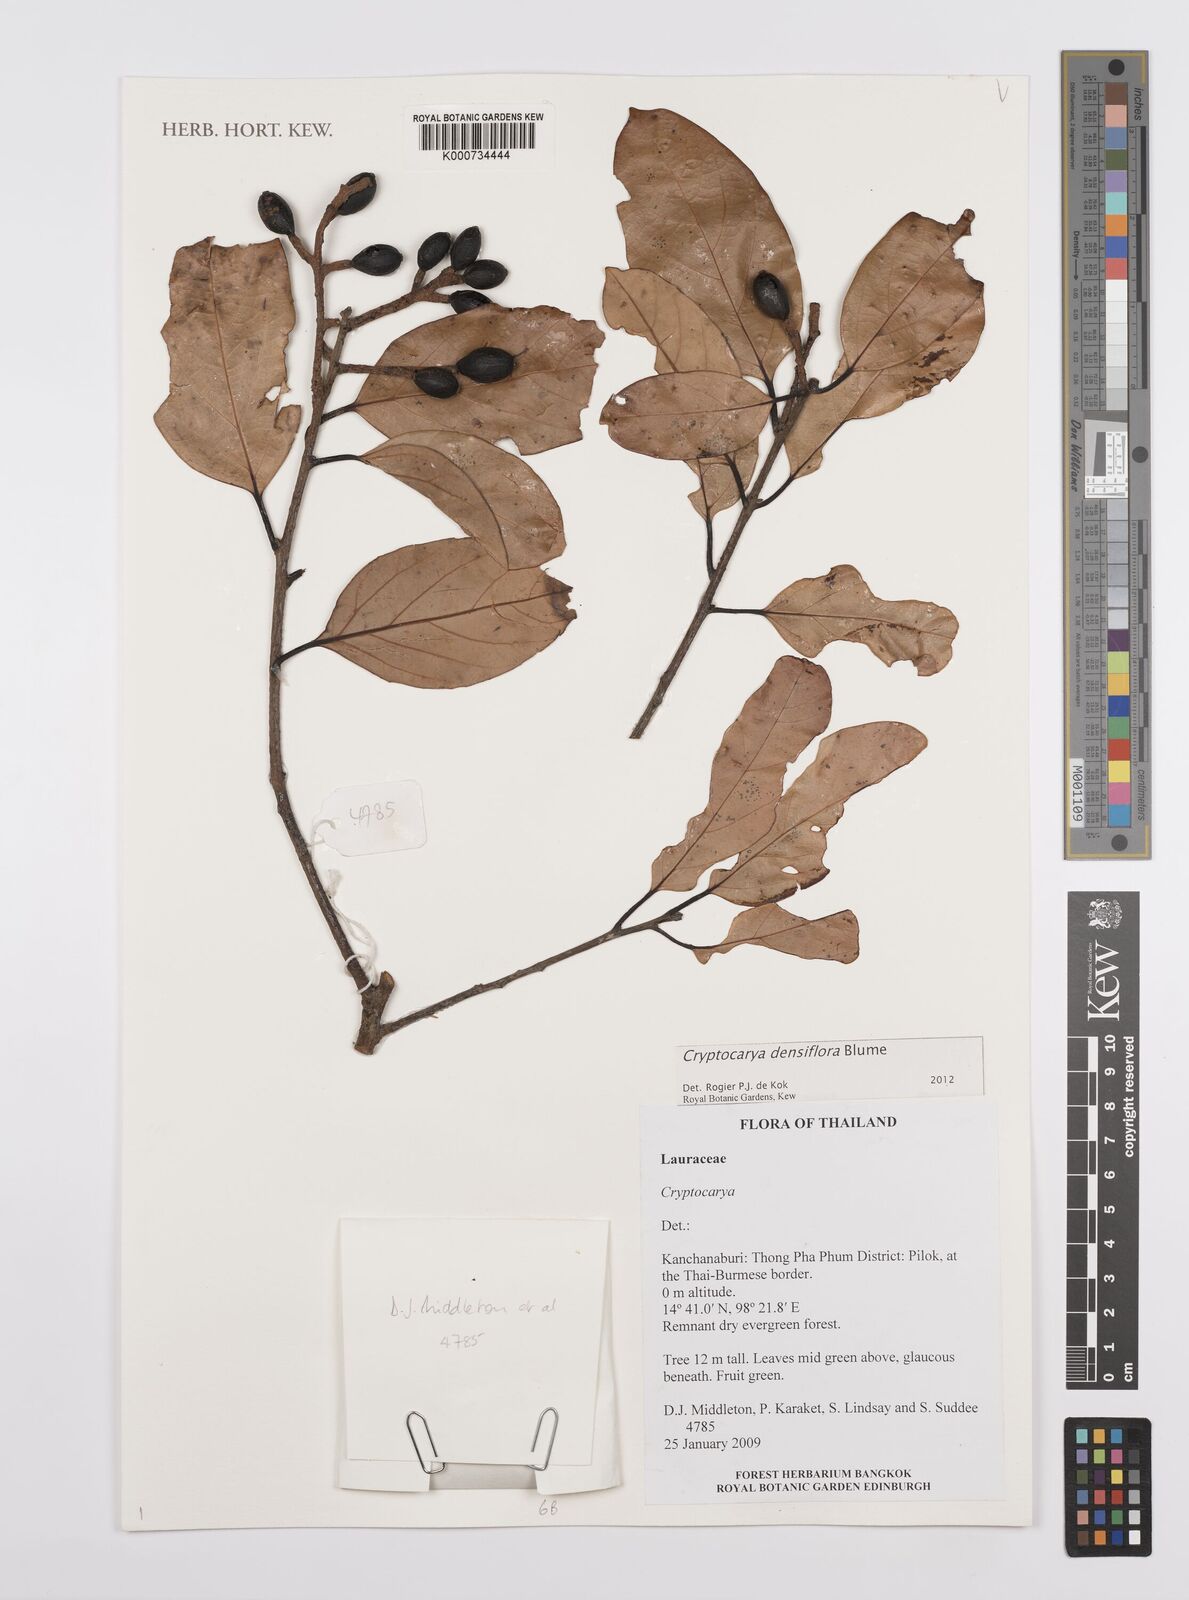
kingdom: Plantae
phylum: Tracheophyta
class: Magnoliopsida
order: Laurales
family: Lauraceae
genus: Cryptocarya
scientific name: Cryptocarya densiflora
